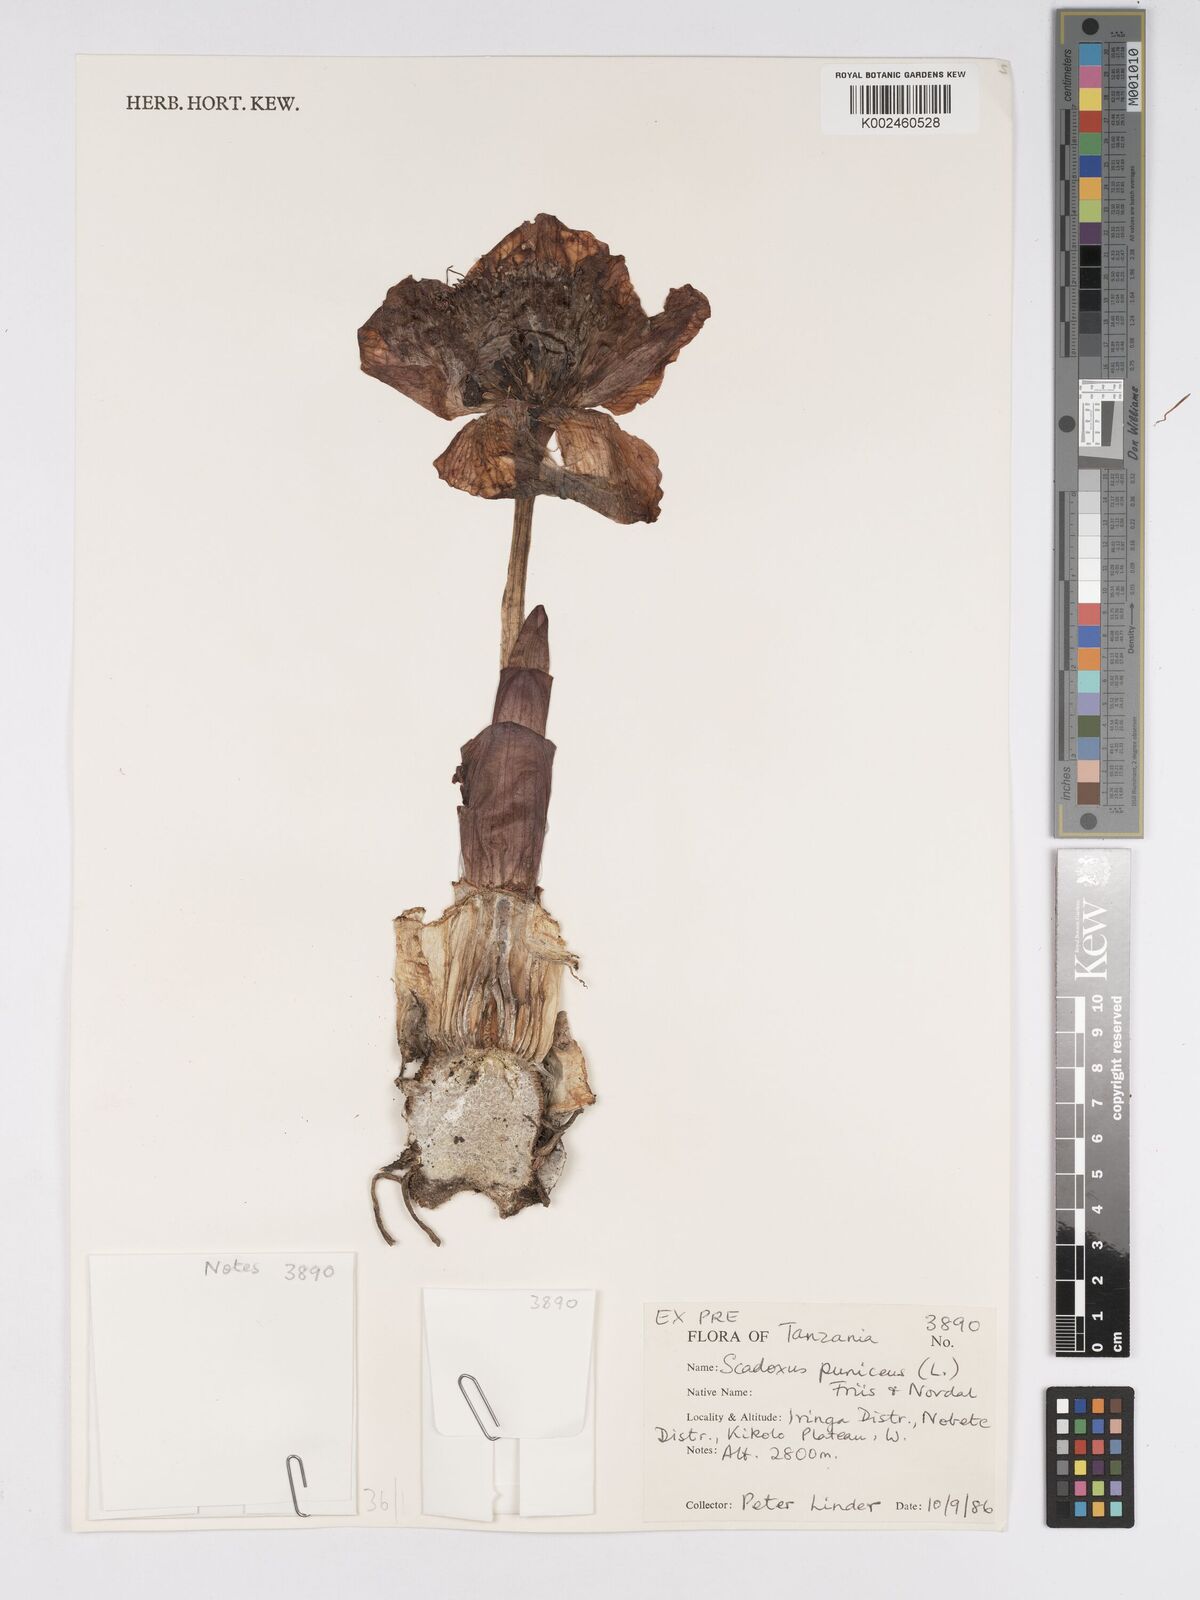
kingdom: Plantae
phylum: Tracheophyta
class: Liliopsida
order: Asparagales
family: Amaryllidaceae
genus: Scadoxus
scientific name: Scadoxus puniceus
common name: Royal-paintbrush
